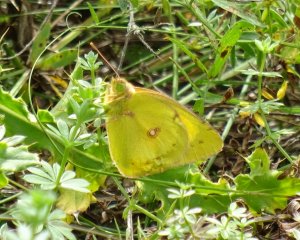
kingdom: Animalia
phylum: Arthropoda
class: Insecta
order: Lepidoptera
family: Pieridae
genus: Colias
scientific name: Colias philodice
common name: Clouded Sulphur
